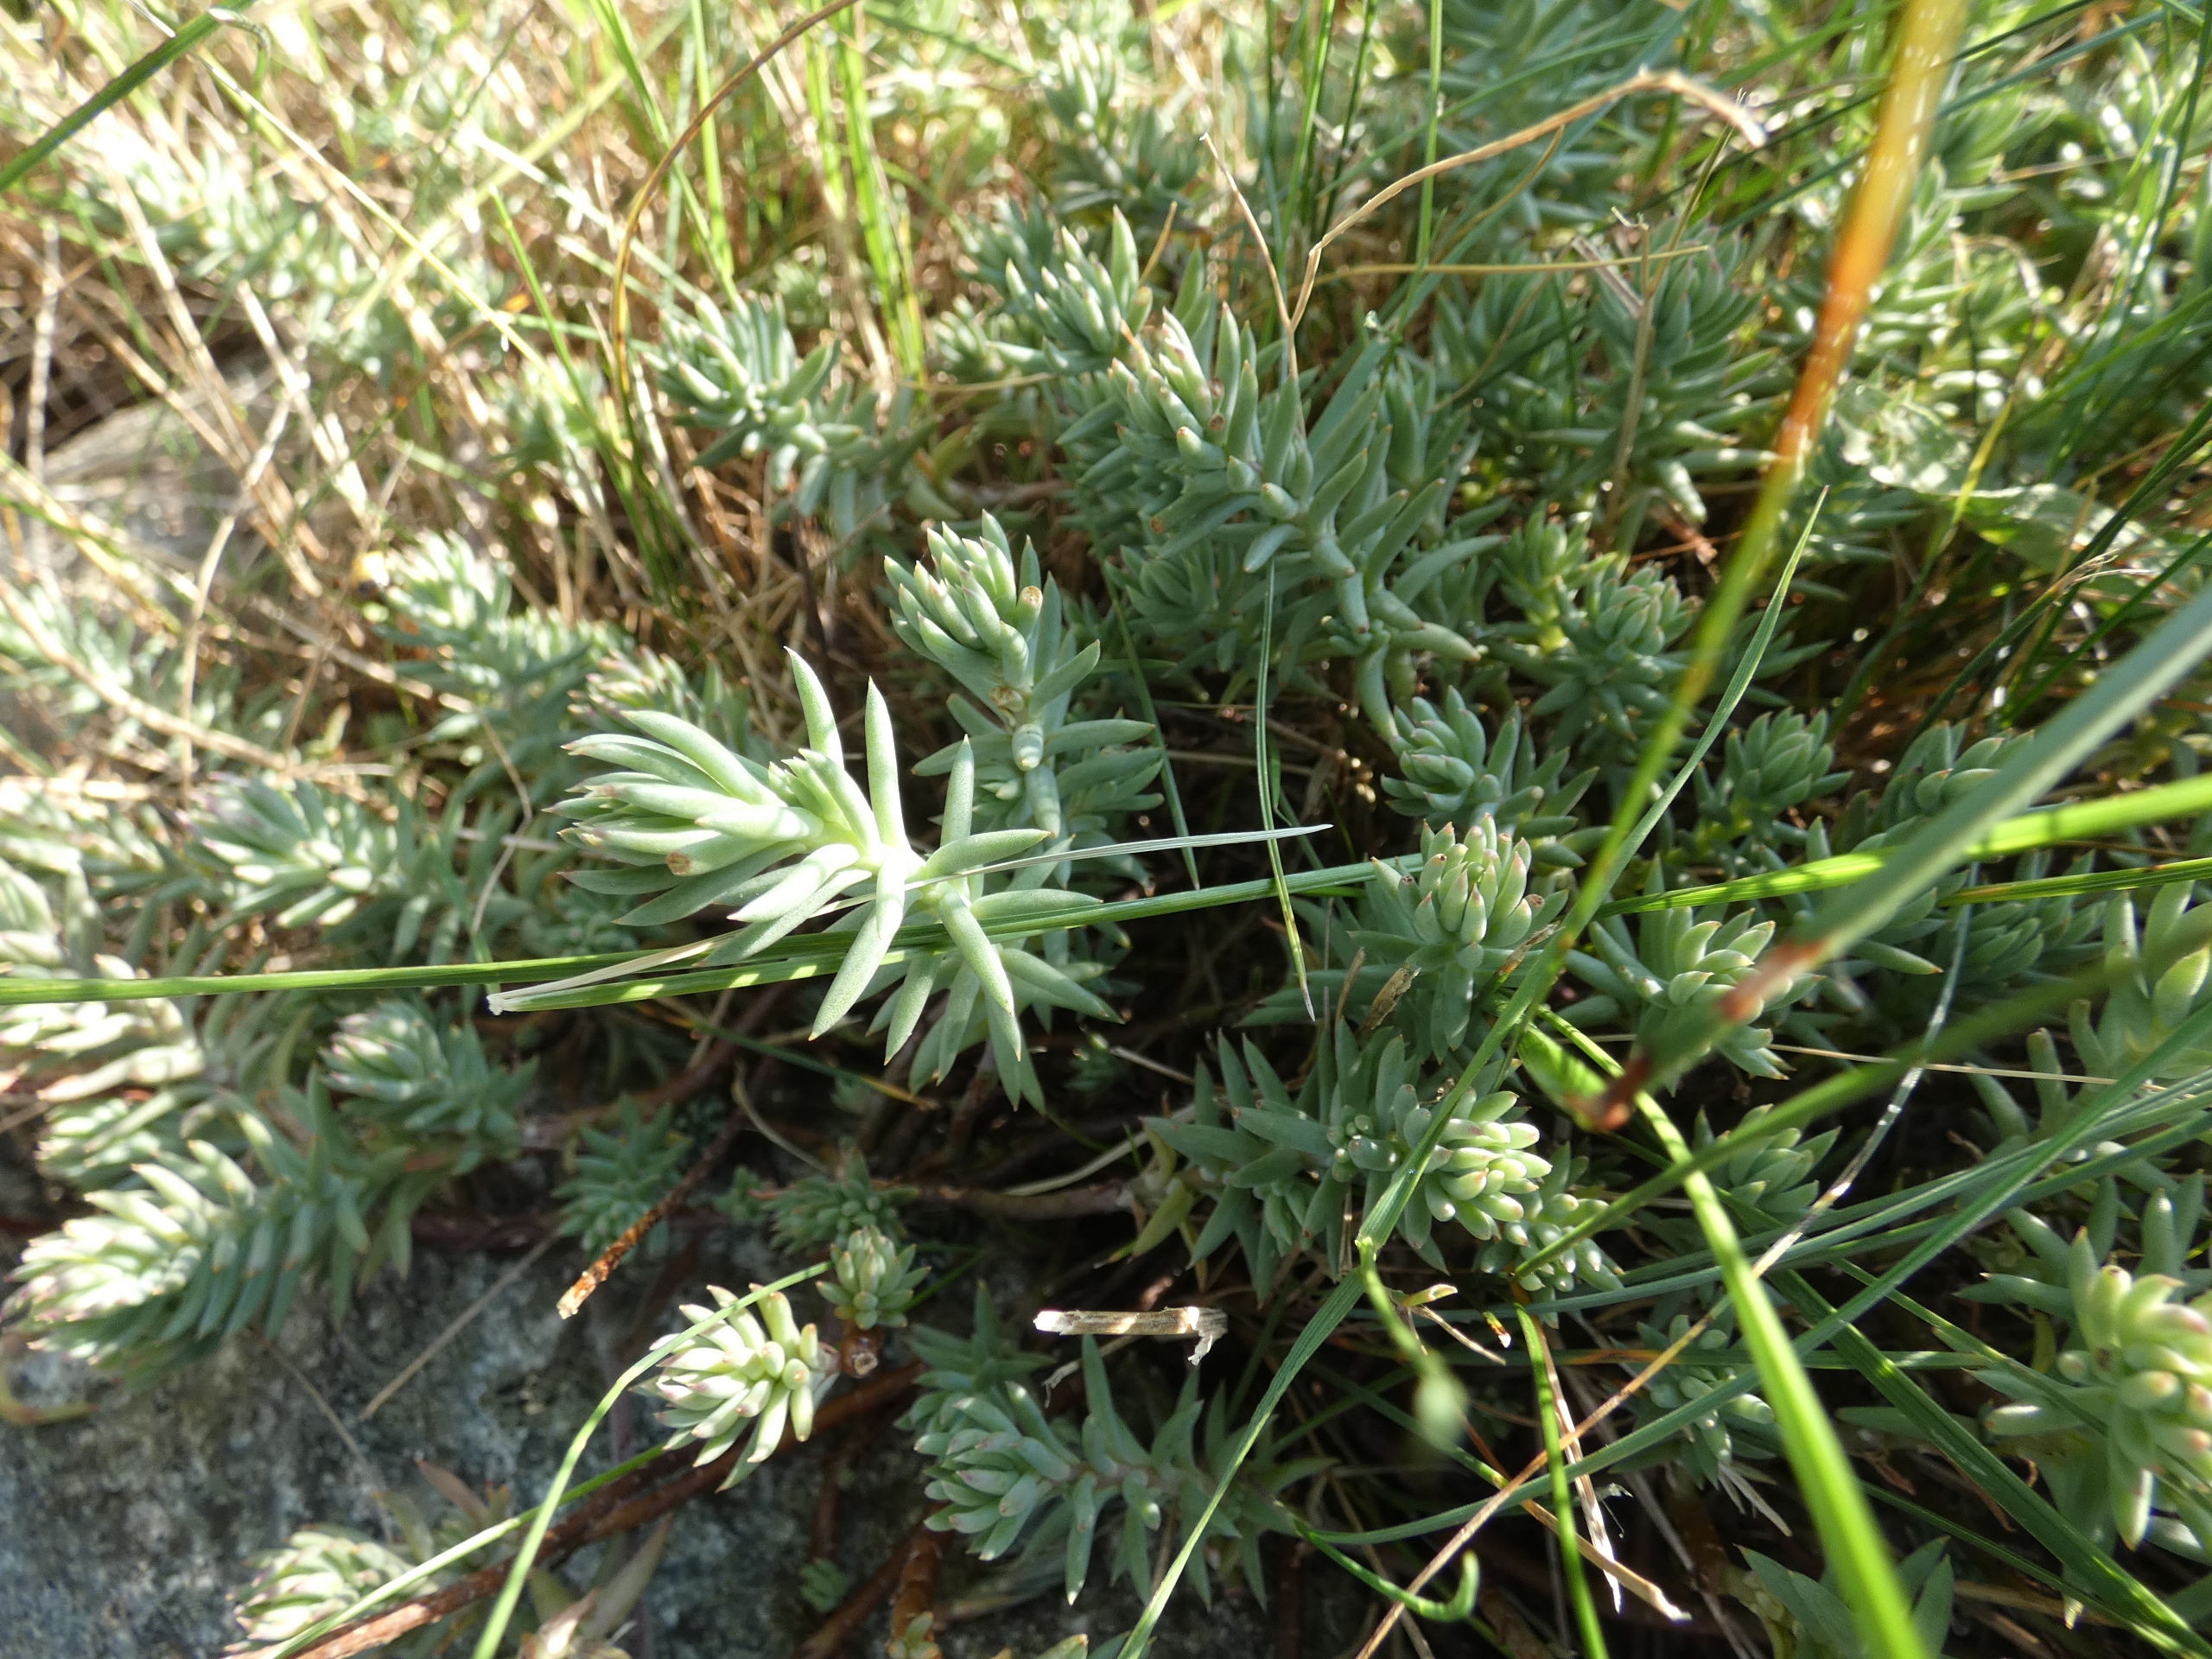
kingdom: Plantae
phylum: Tracheophyta
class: Magnoliopsida
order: Saxifragales
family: Crassulaceae
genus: Petrosedum
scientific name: Petrosedum rupestre
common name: Bjerg-stenurt
